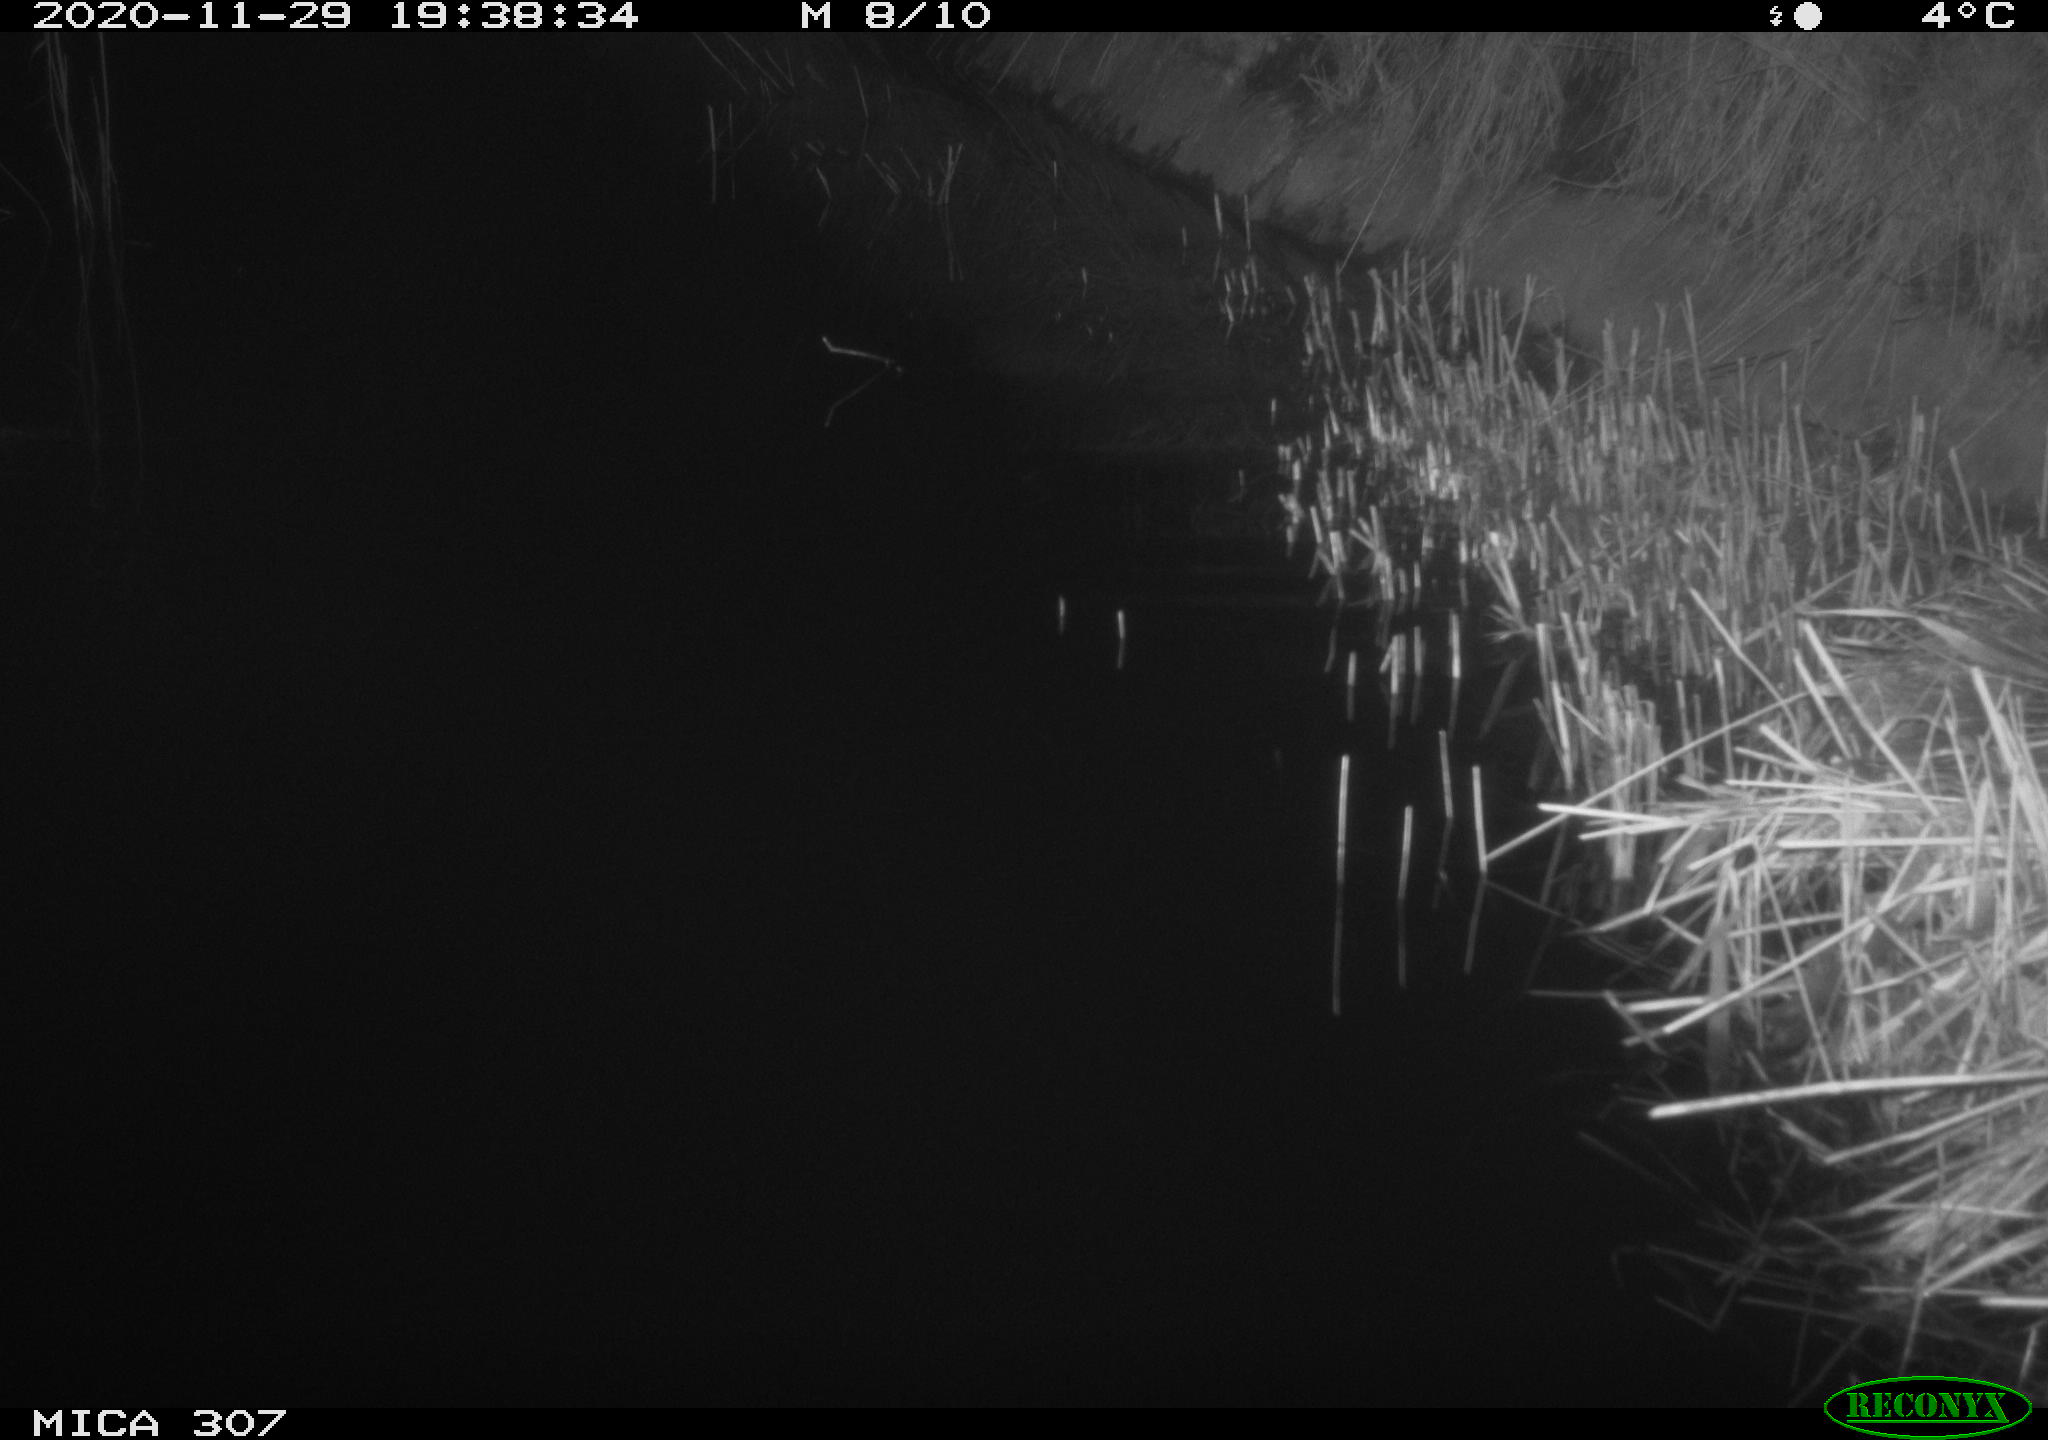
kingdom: Animalia
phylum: Chordata
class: Mammalia
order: Rodentia
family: Muridae
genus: Rattus
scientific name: Rattus norvegicus
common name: Brown rat
